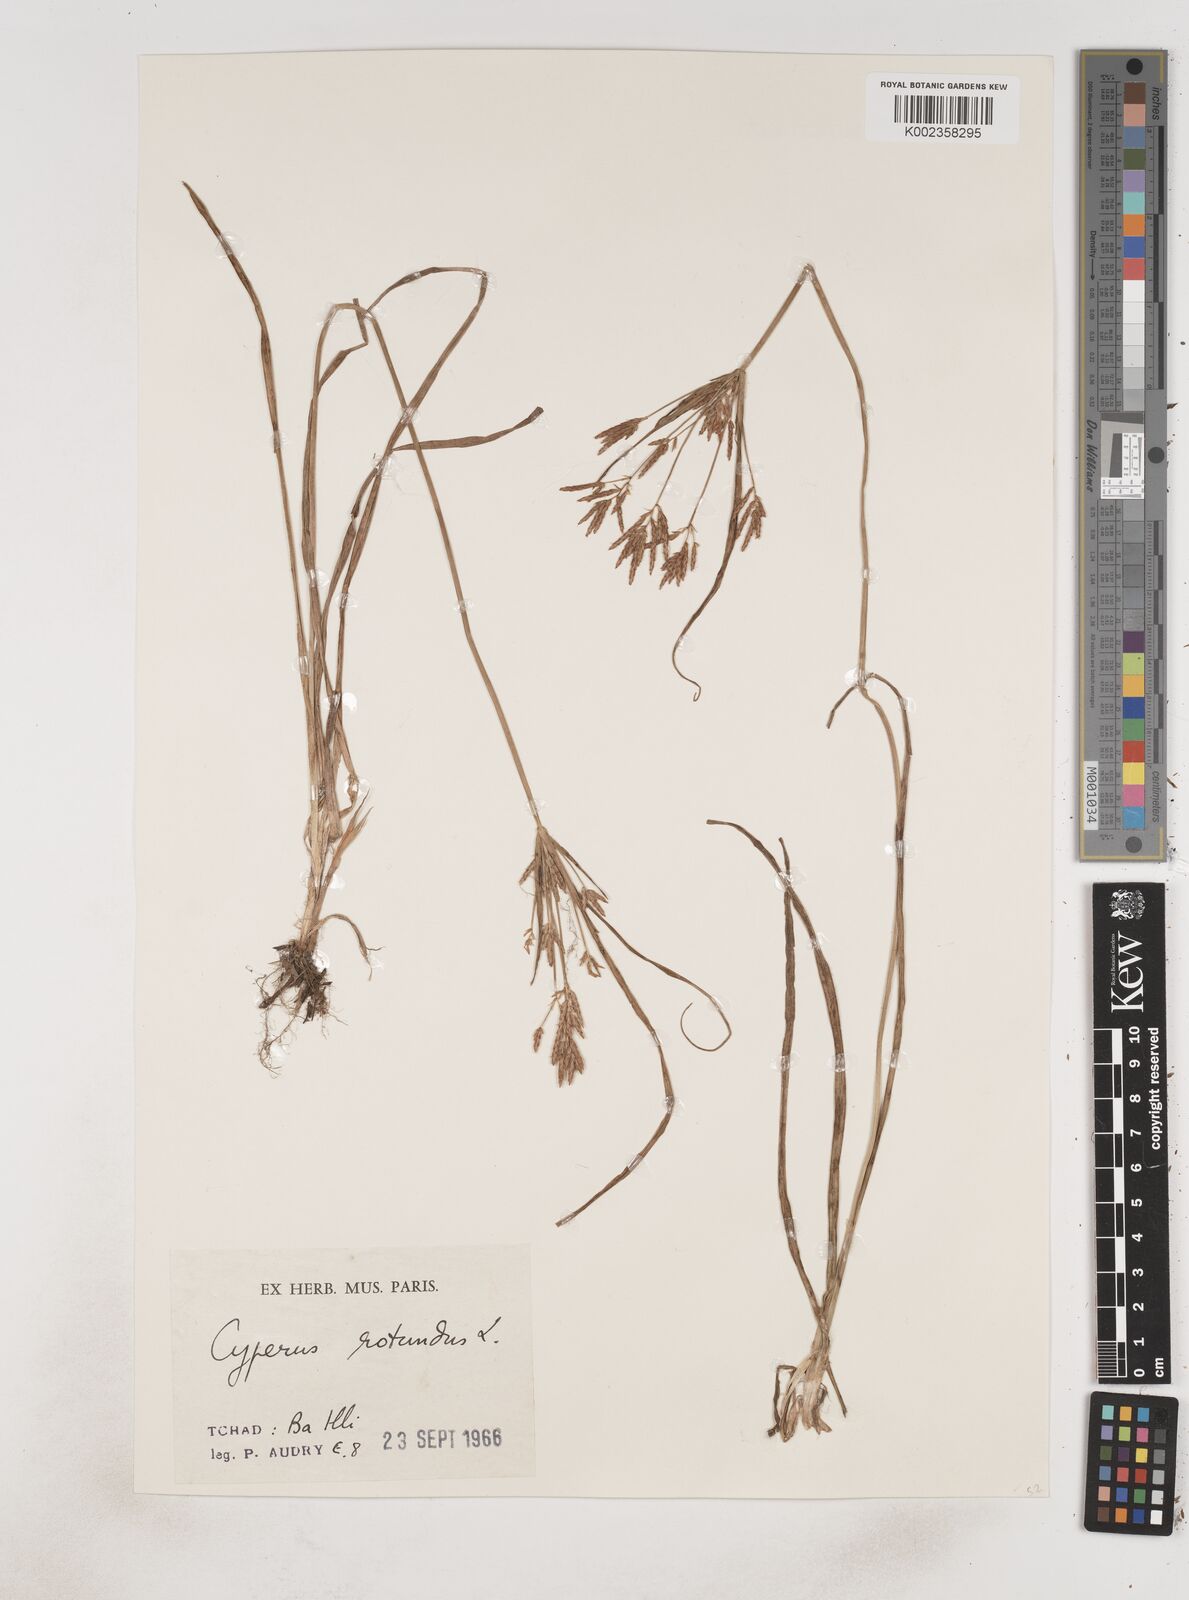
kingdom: Plantae
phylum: Tracheophyta
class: Liliopsida
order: Poales
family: Cyperaceae
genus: Cyperus
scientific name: Cyperus rotundus
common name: Nutgrass
